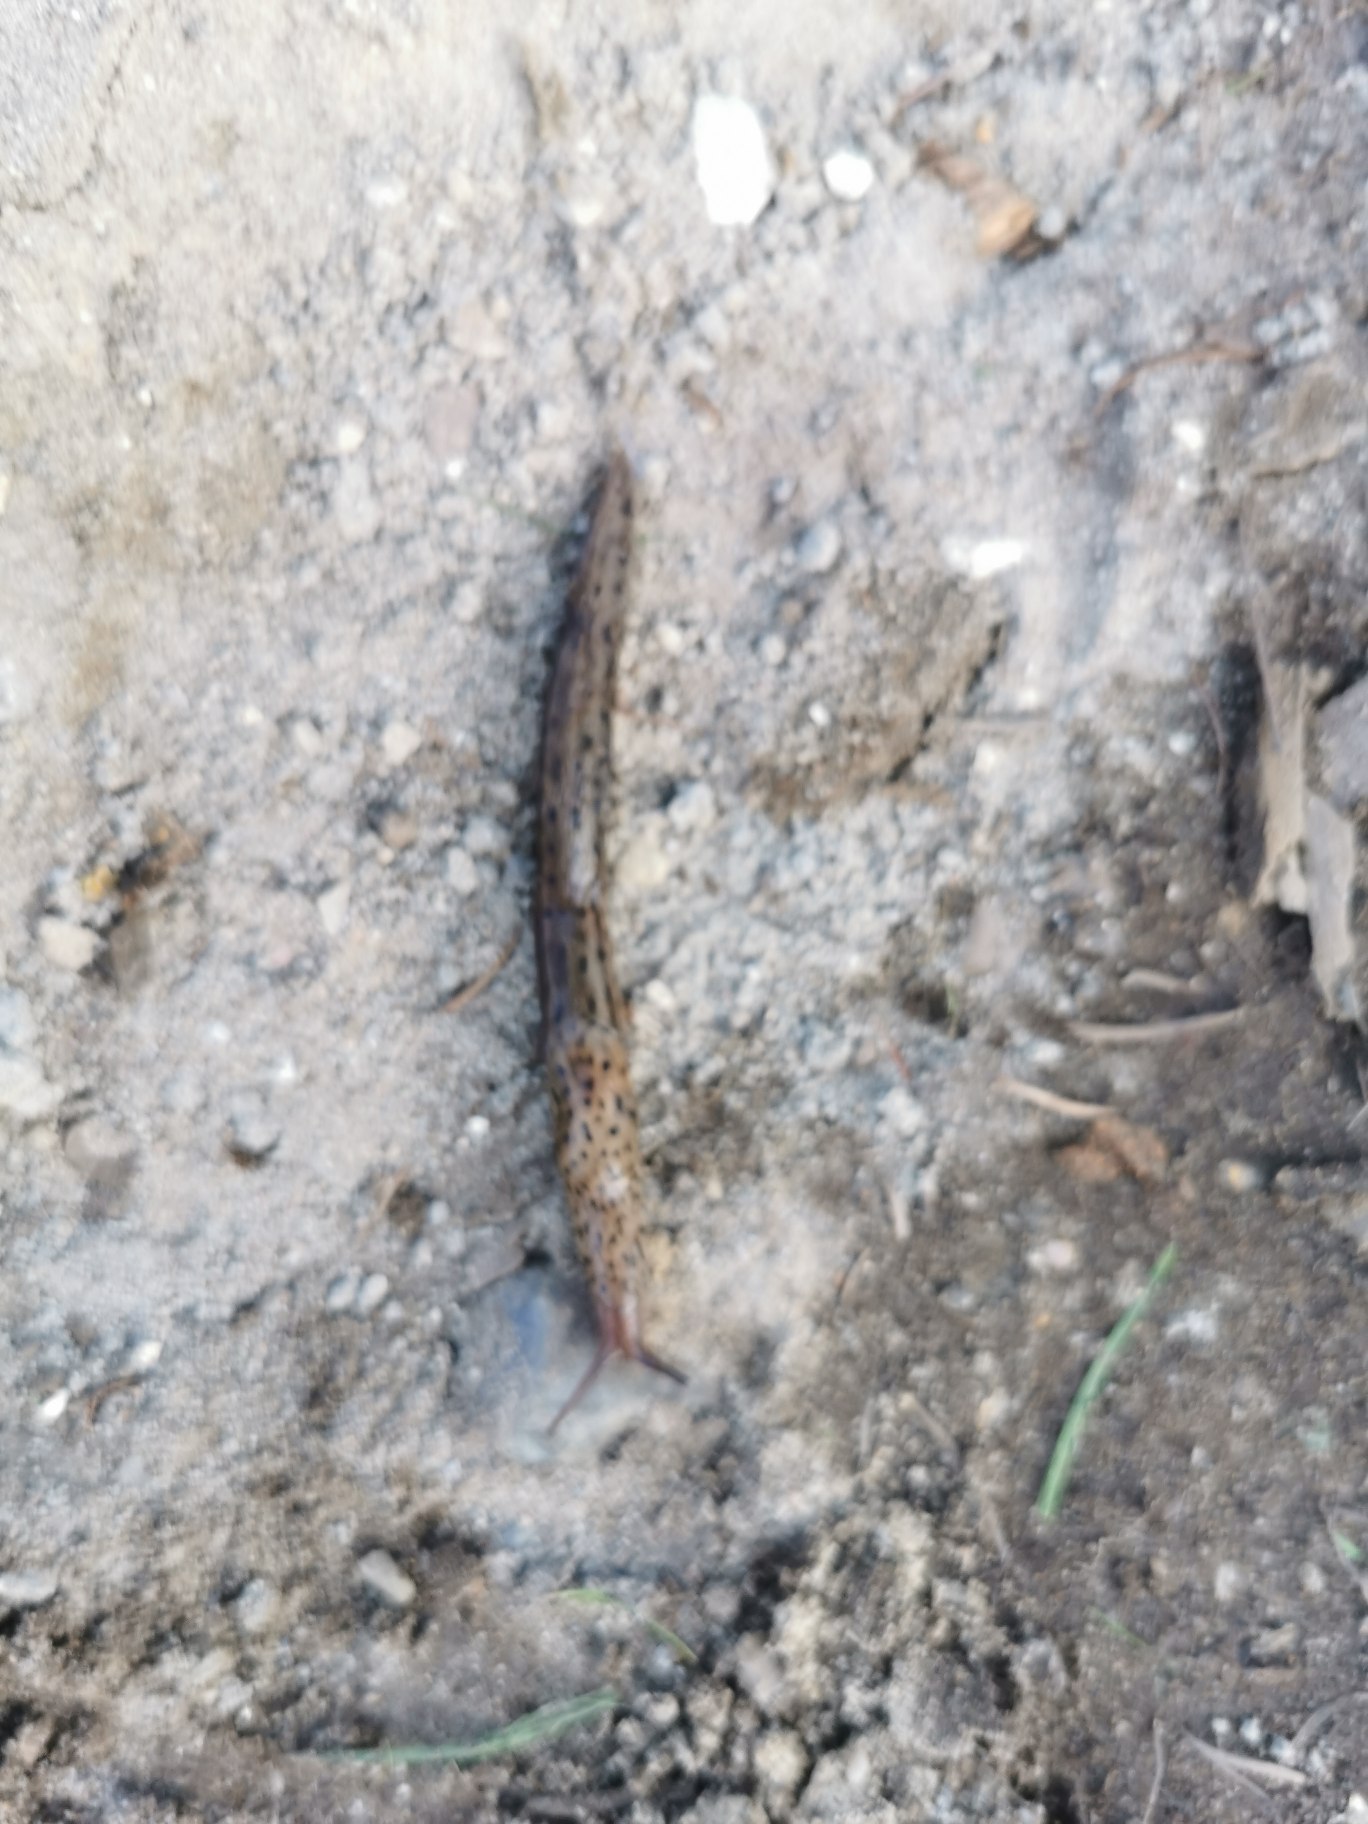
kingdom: Animalia
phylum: Mollusca
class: Gastropoda
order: Stylommatophora
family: Limacidae
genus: Limax
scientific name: Limax maximus
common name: Pantersnegl
